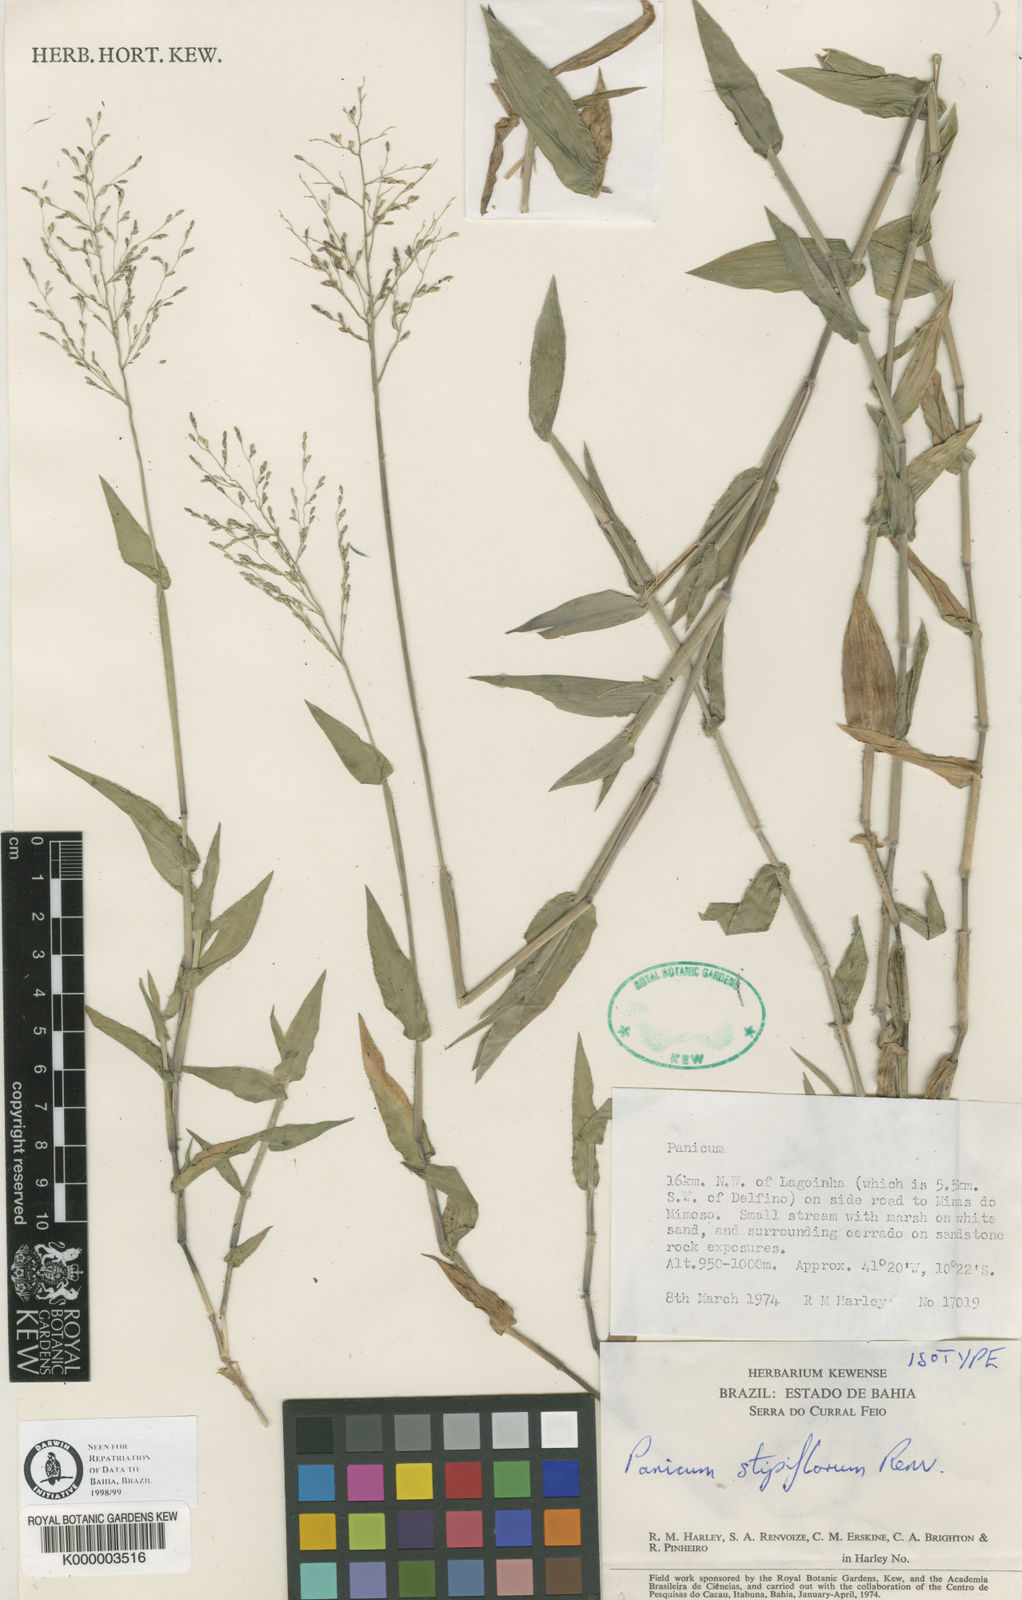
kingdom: Plantae
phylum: Tracheophyta
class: Liliopsida
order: Poales
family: Poaceae
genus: Dichanthelium
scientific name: Dichanthelium stipiflorum
